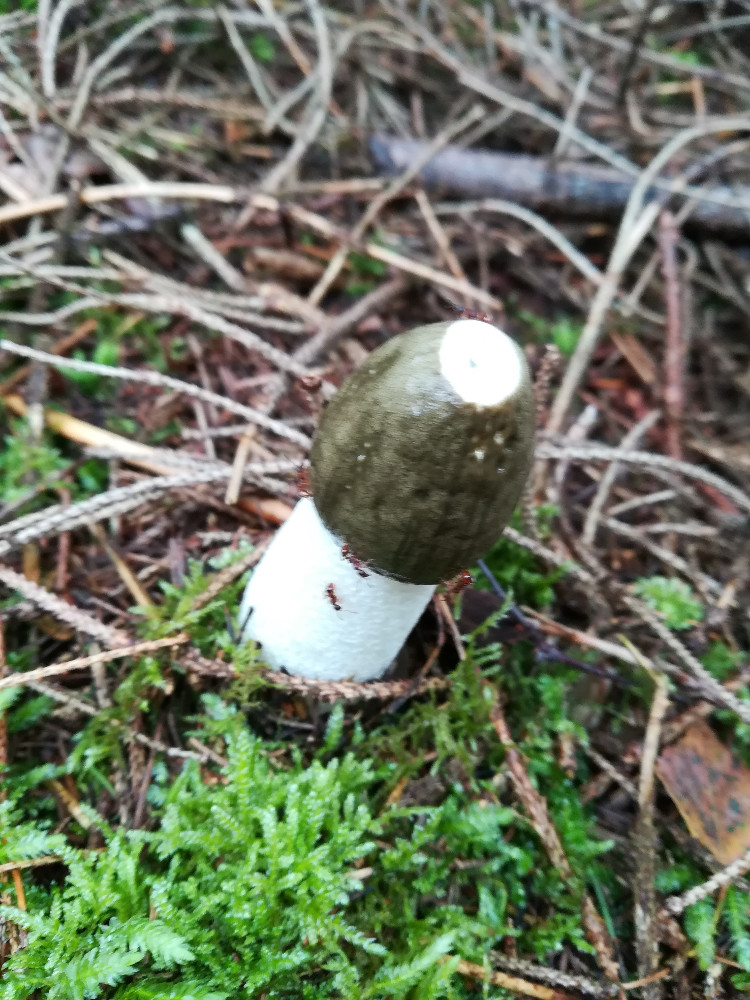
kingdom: Fungi
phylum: Basidiomycota
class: Agaricomycetes
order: Phallales
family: Phallaceae
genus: Phallus
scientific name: Phallus impudicus
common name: almindelig stinksvamp
